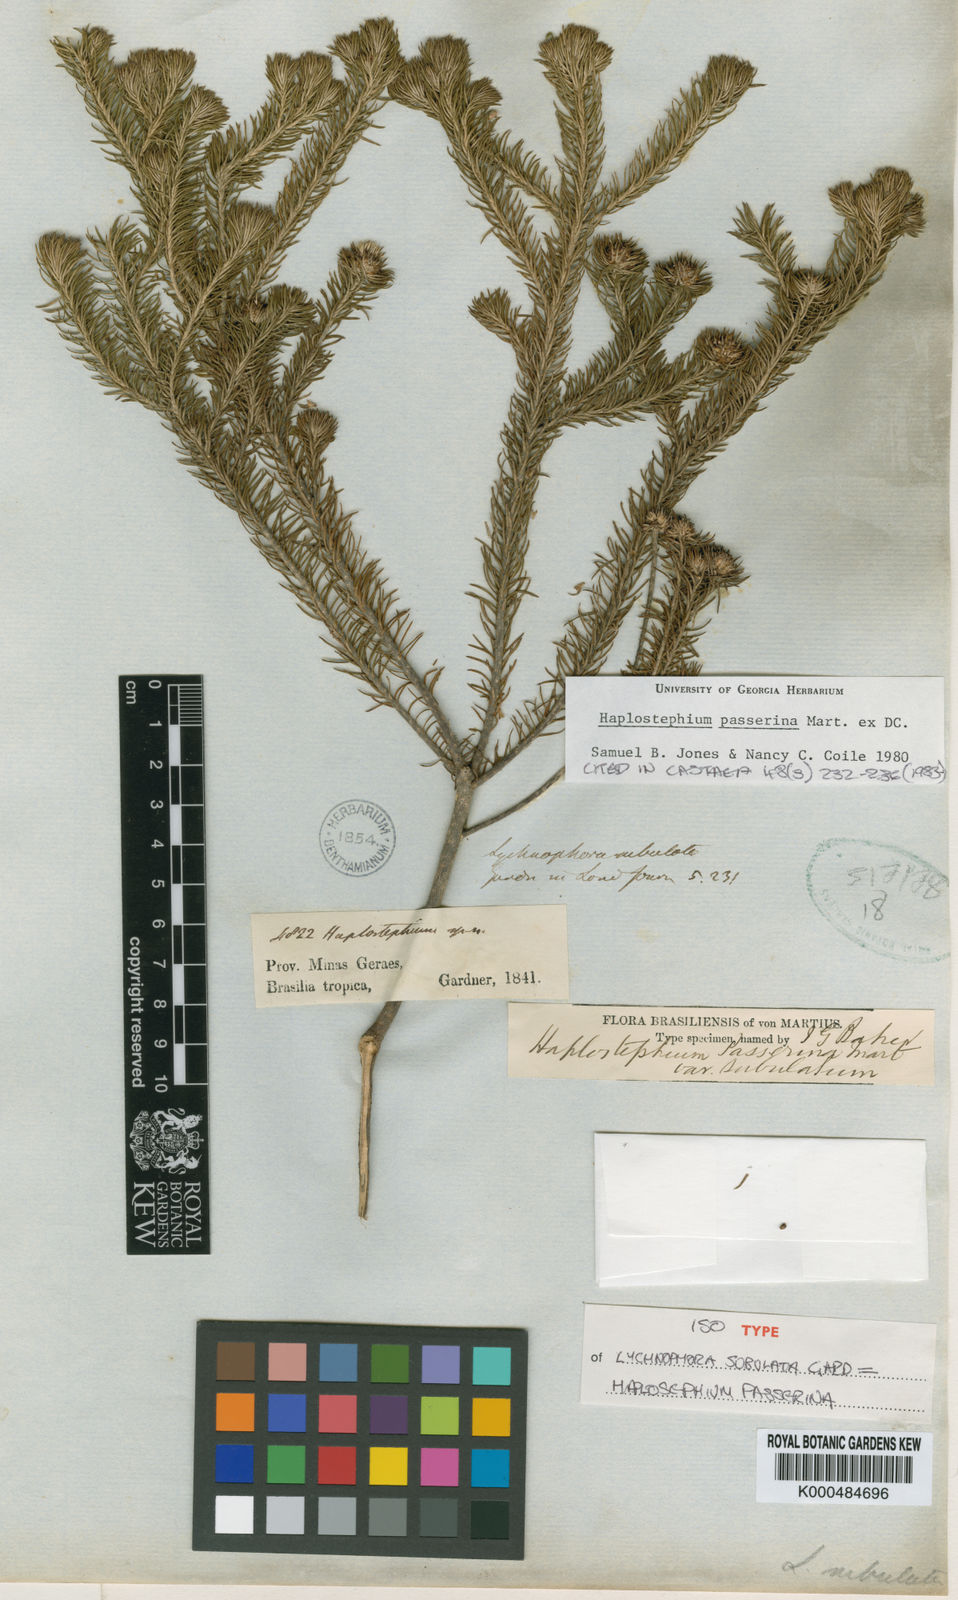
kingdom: Plantae
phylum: Tracheophyta
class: Magnoliopsida
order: Asterales
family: Asteraceae
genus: Lychnophora
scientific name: Lychnophora passerina
